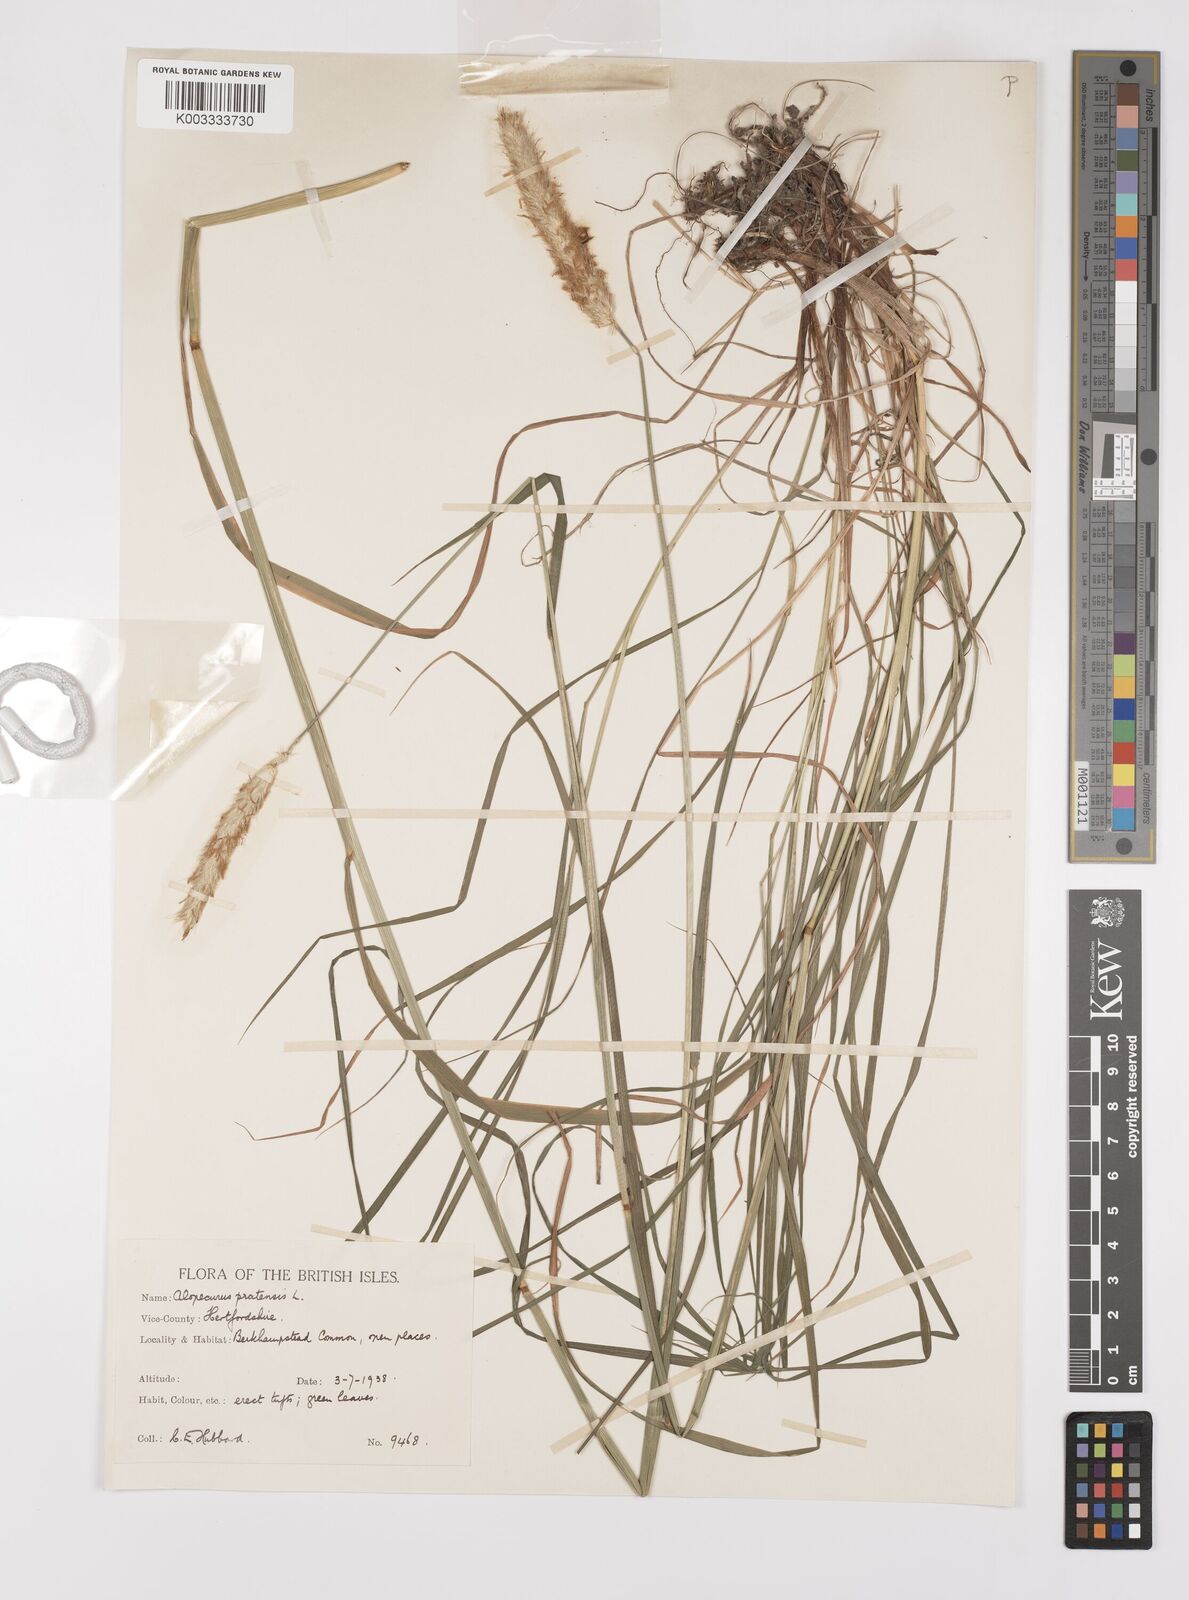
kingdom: Plantae
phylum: Tracheophyta
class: Liliopsida
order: Poales
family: Poaceae
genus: Alopecurus
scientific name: Alopecurus pratensis
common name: Meadow foxtail
